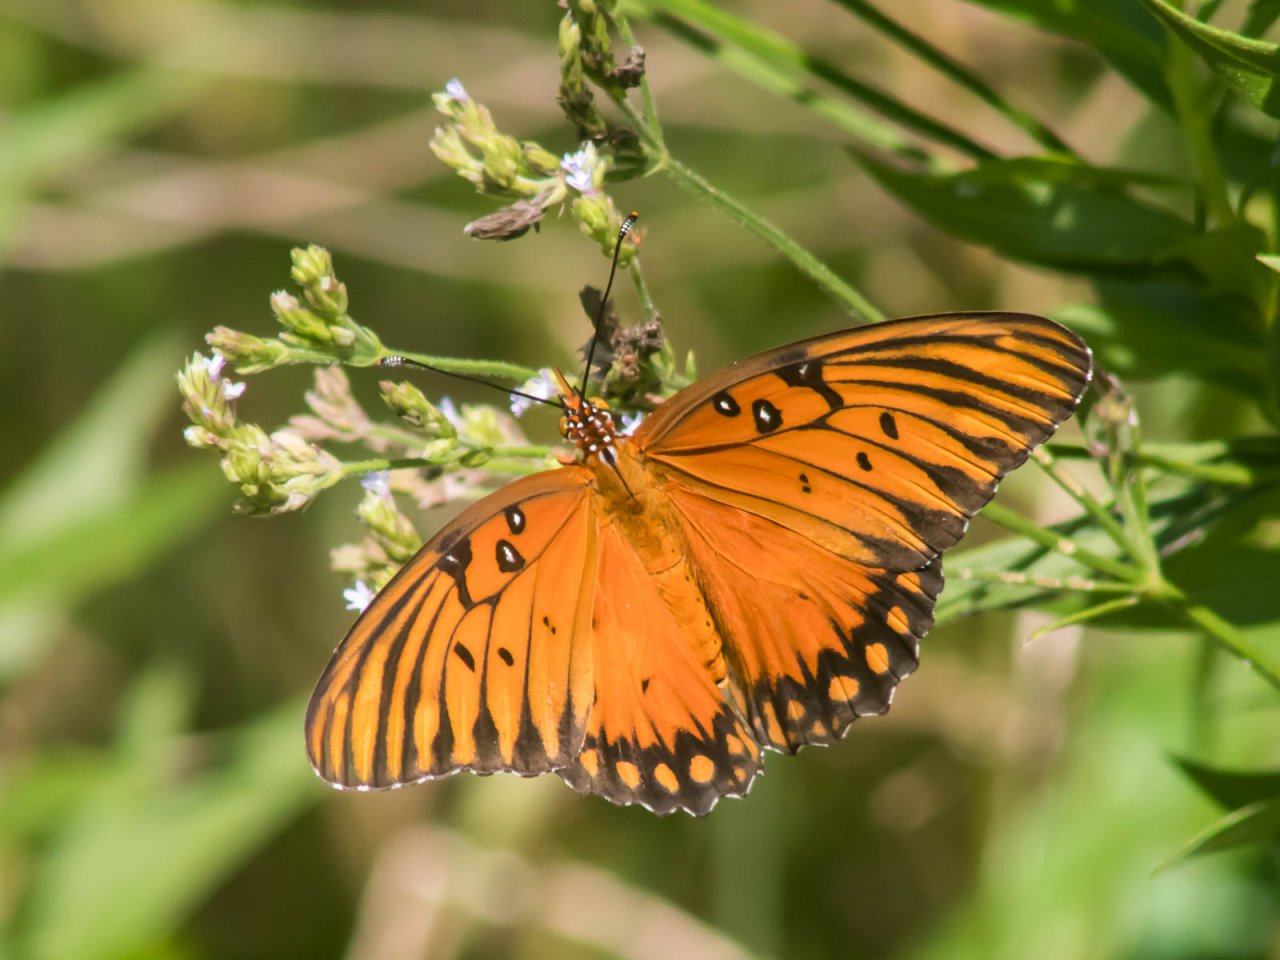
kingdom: Animalia
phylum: Arthropoda
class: Insecta
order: Lepidoptera
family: Nymphalidae
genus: Dione
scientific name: Dione vanillae
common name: Gulf Fritillary
